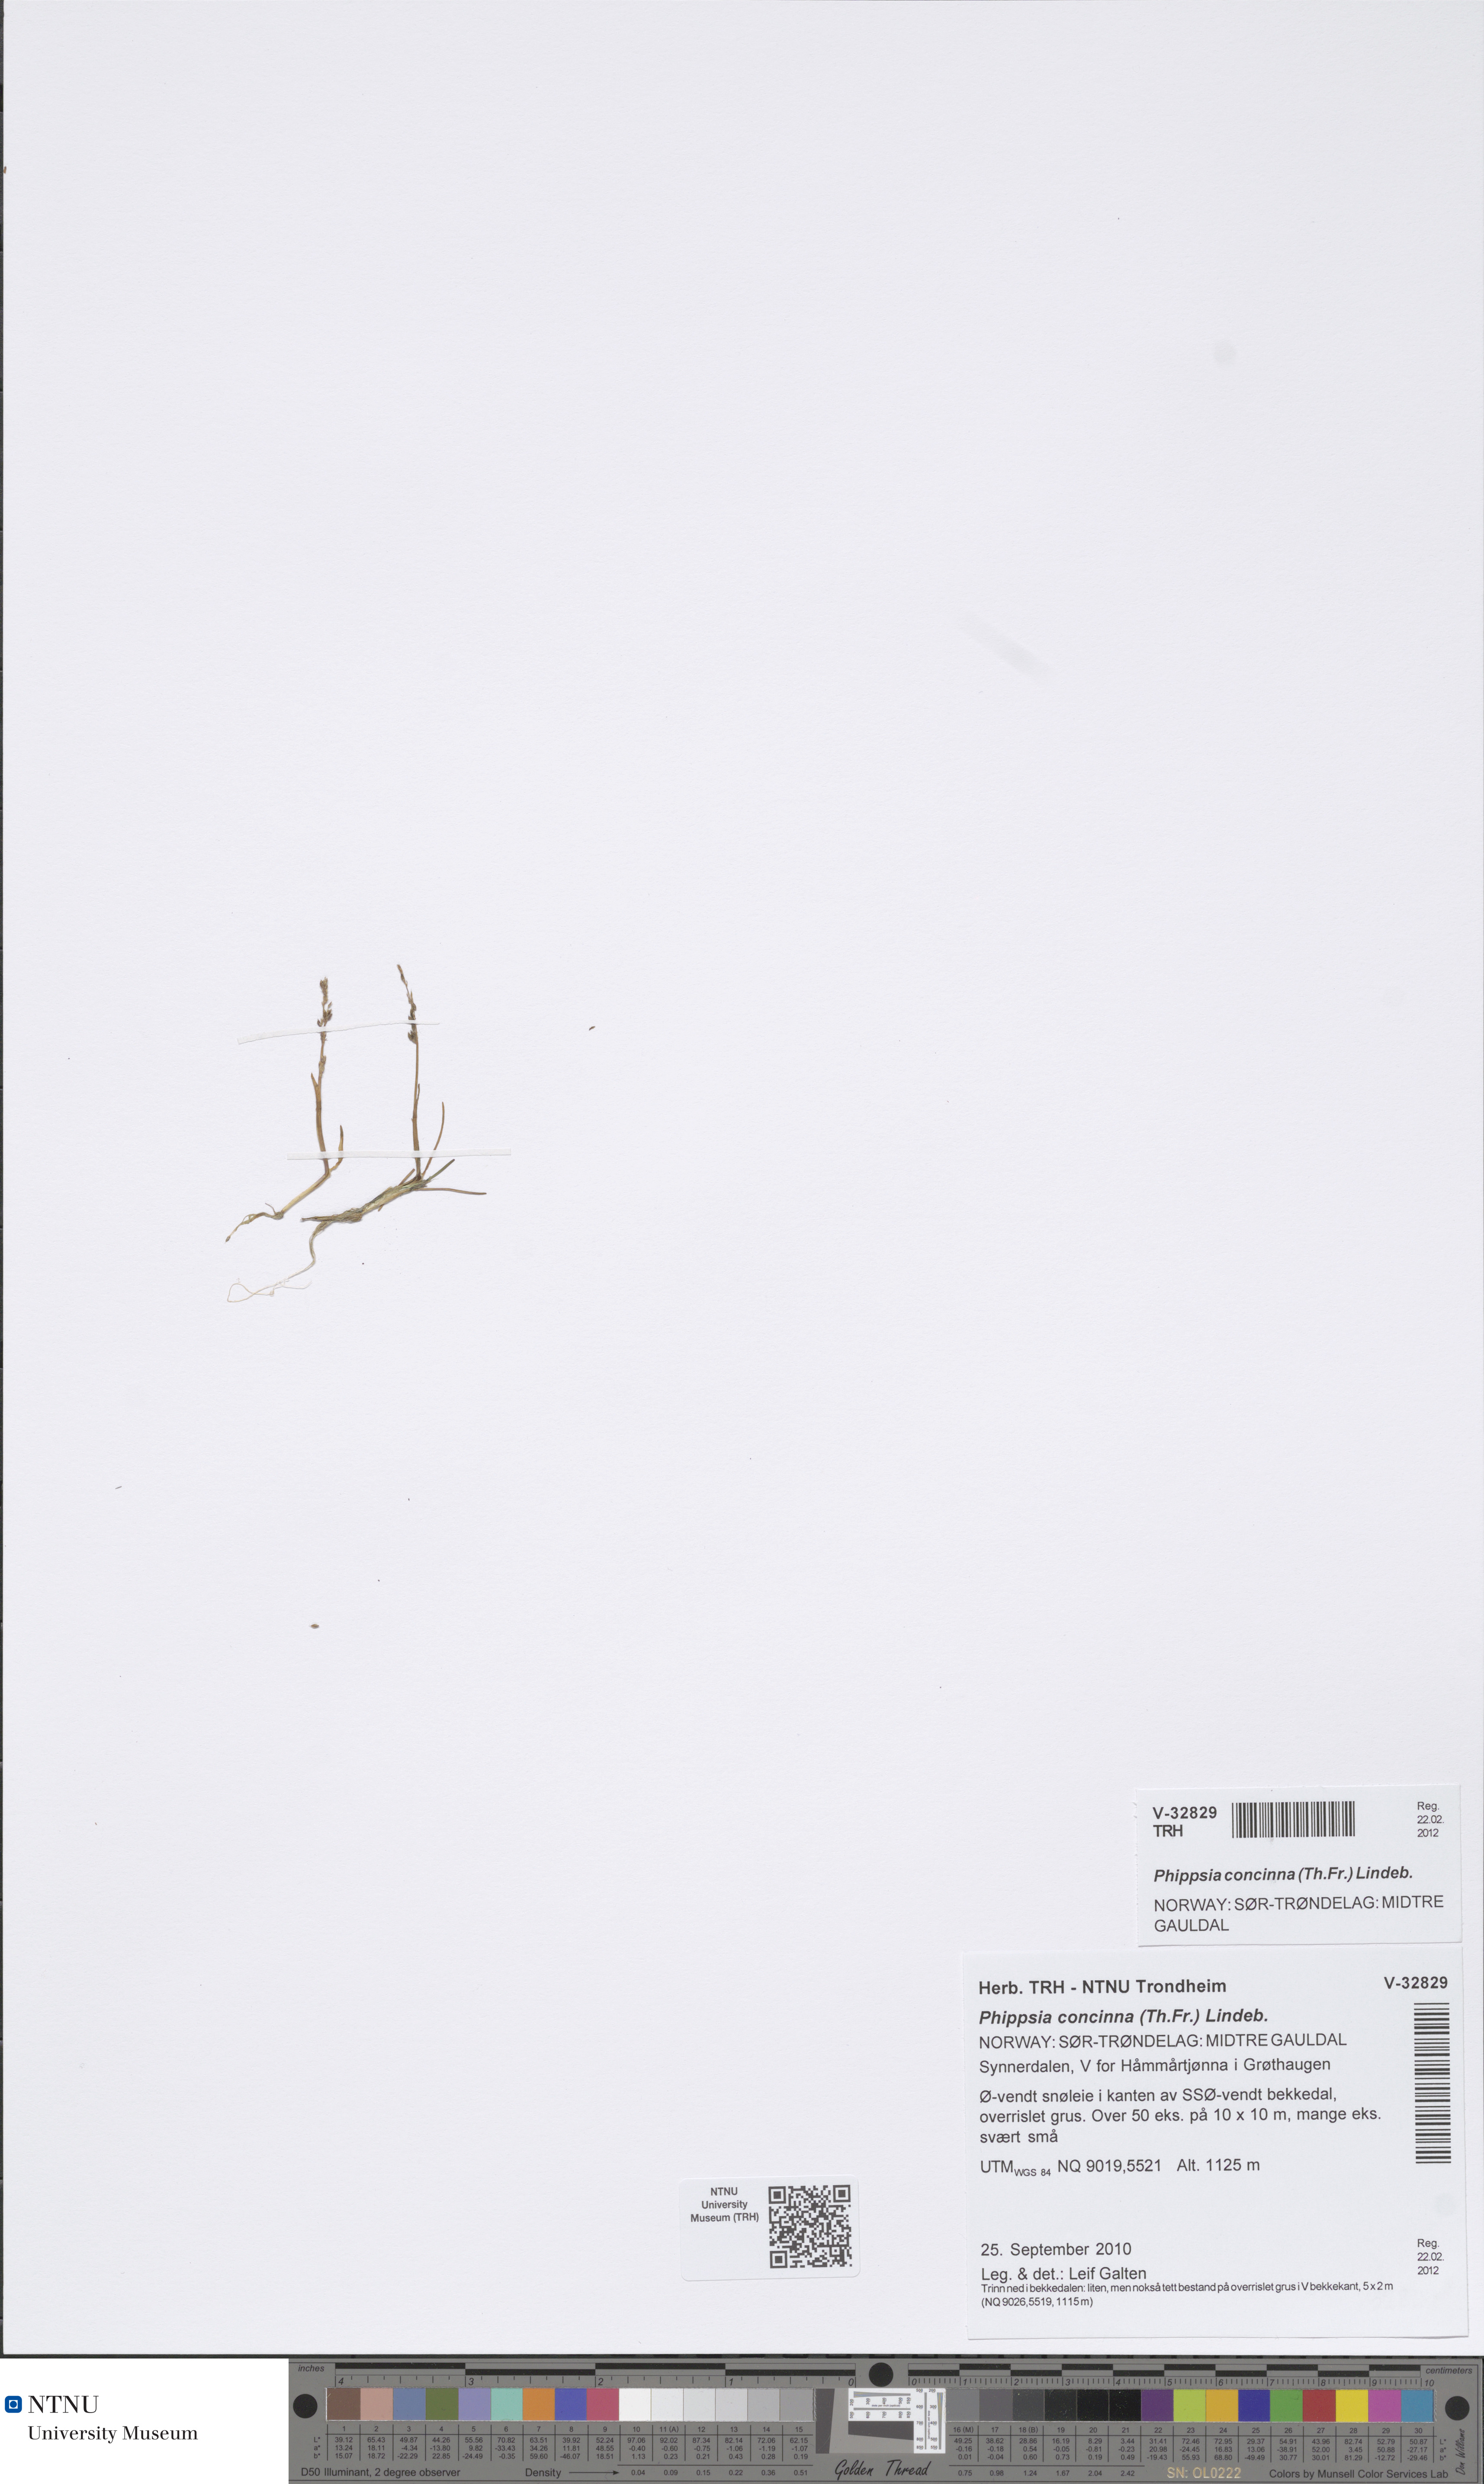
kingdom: Plantae
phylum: Tracheophyta
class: Liliopsida
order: Poales
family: Poaceae
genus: Phippsia
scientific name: Phippsia concinna
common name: Snowgrass
